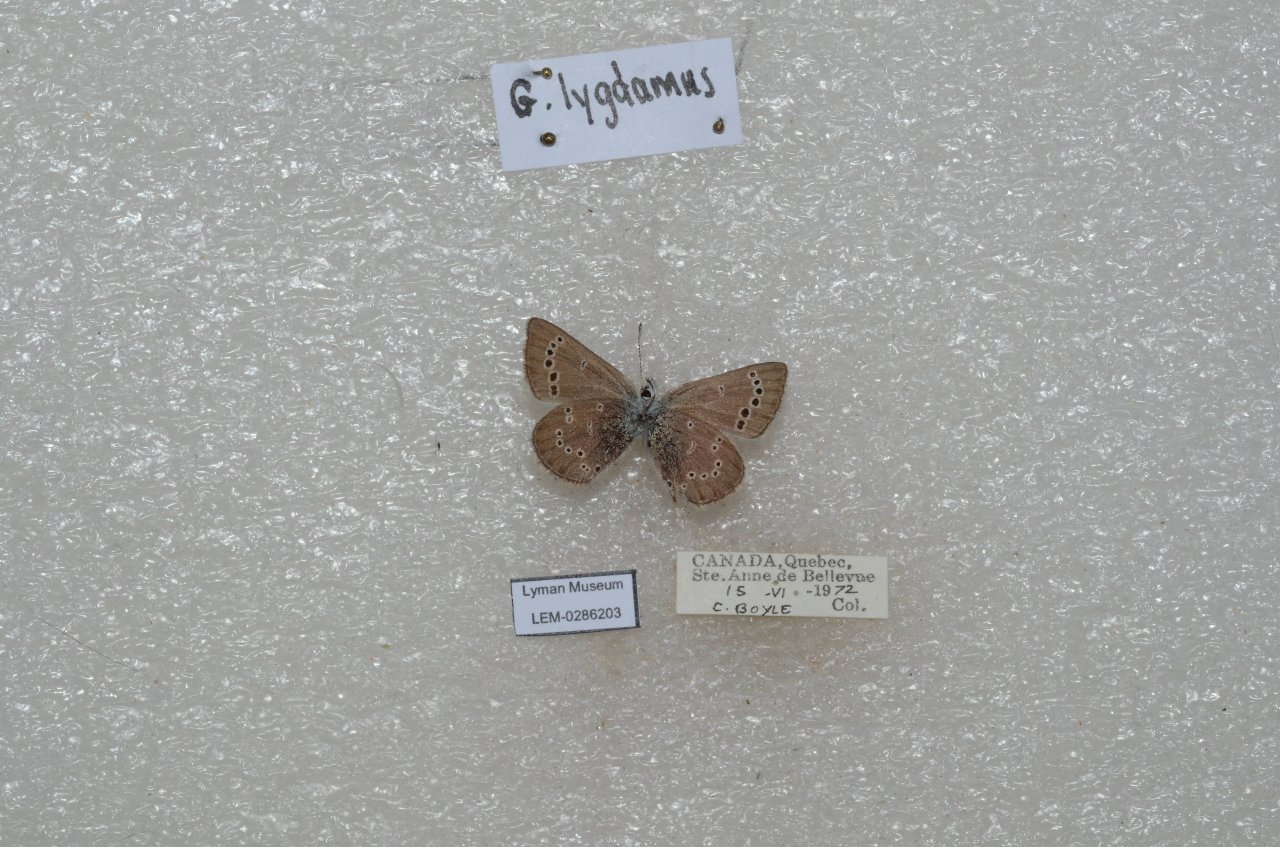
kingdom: Animalia
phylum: Arthropoda
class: Insecta
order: Lepidoptera
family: Lycaenidae
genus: Glaucopsyche
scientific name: Glaucopsyche lygdamus
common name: Silvery Blue
